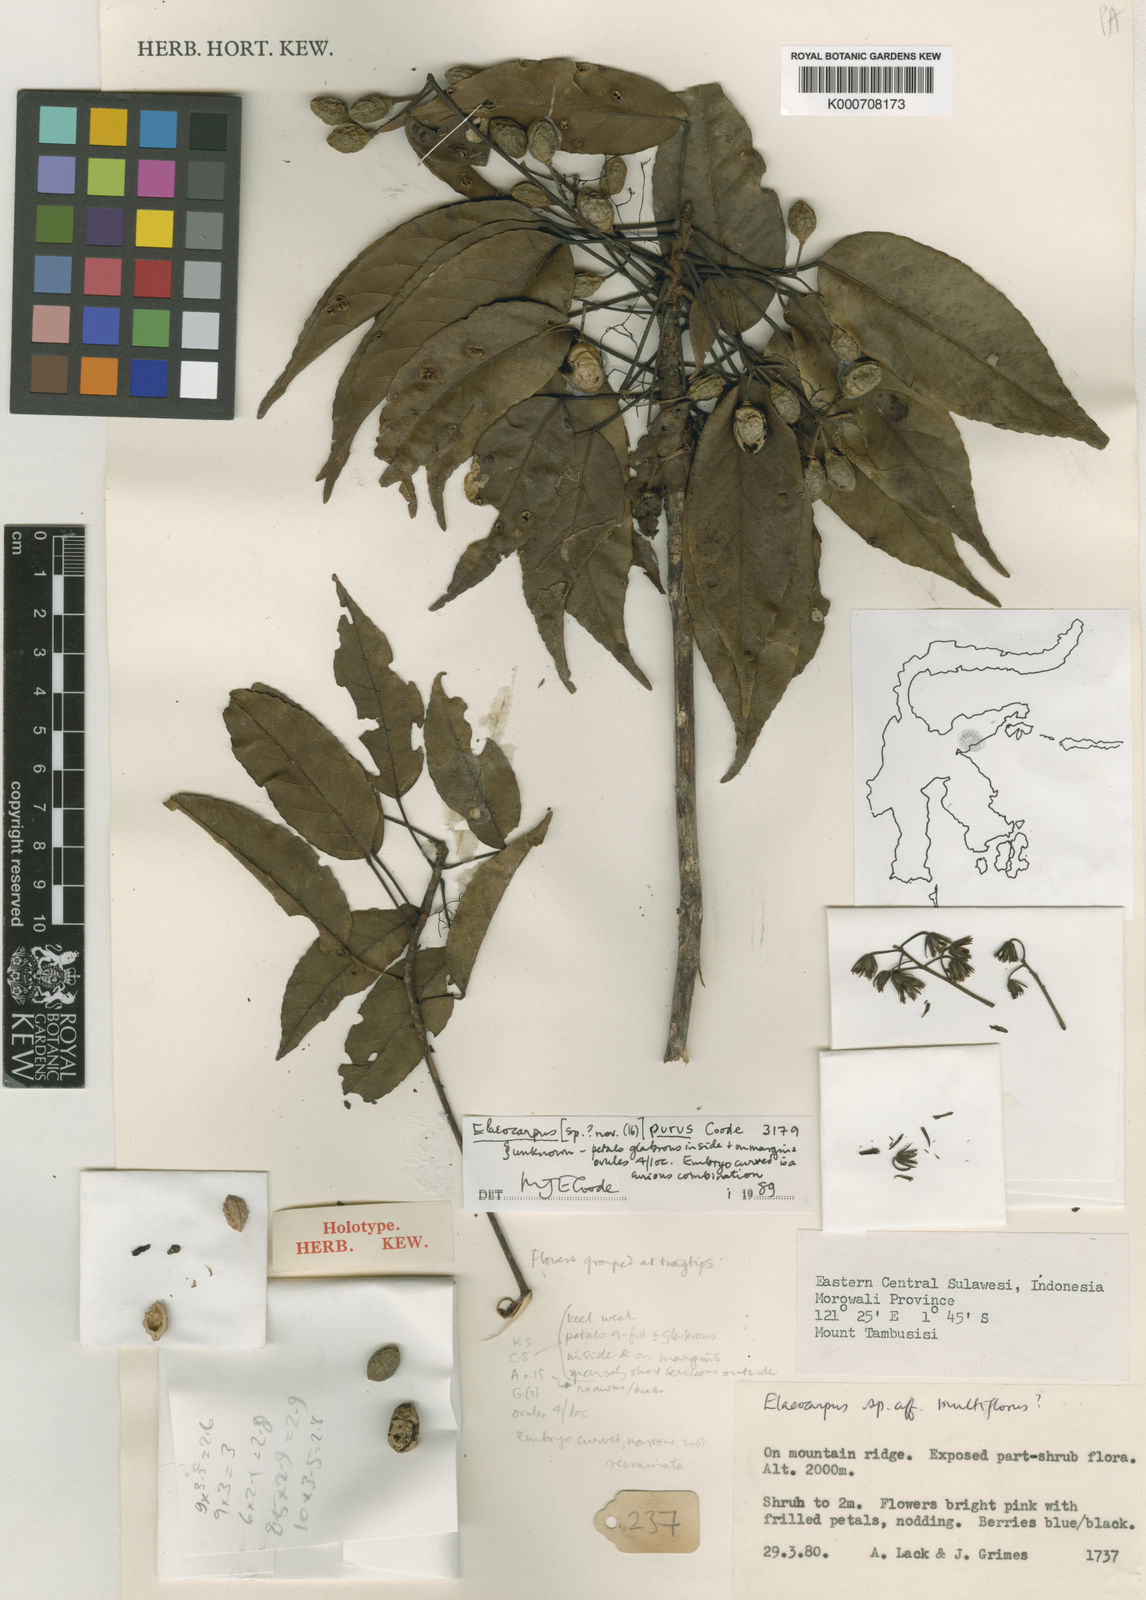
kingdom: Plantae
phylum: Tracheophyta
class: Magnoliopsida
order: Oxalidales
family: Elaeocarpaceae
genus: Elaeocarpus
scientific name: Elaeocarpus purus
